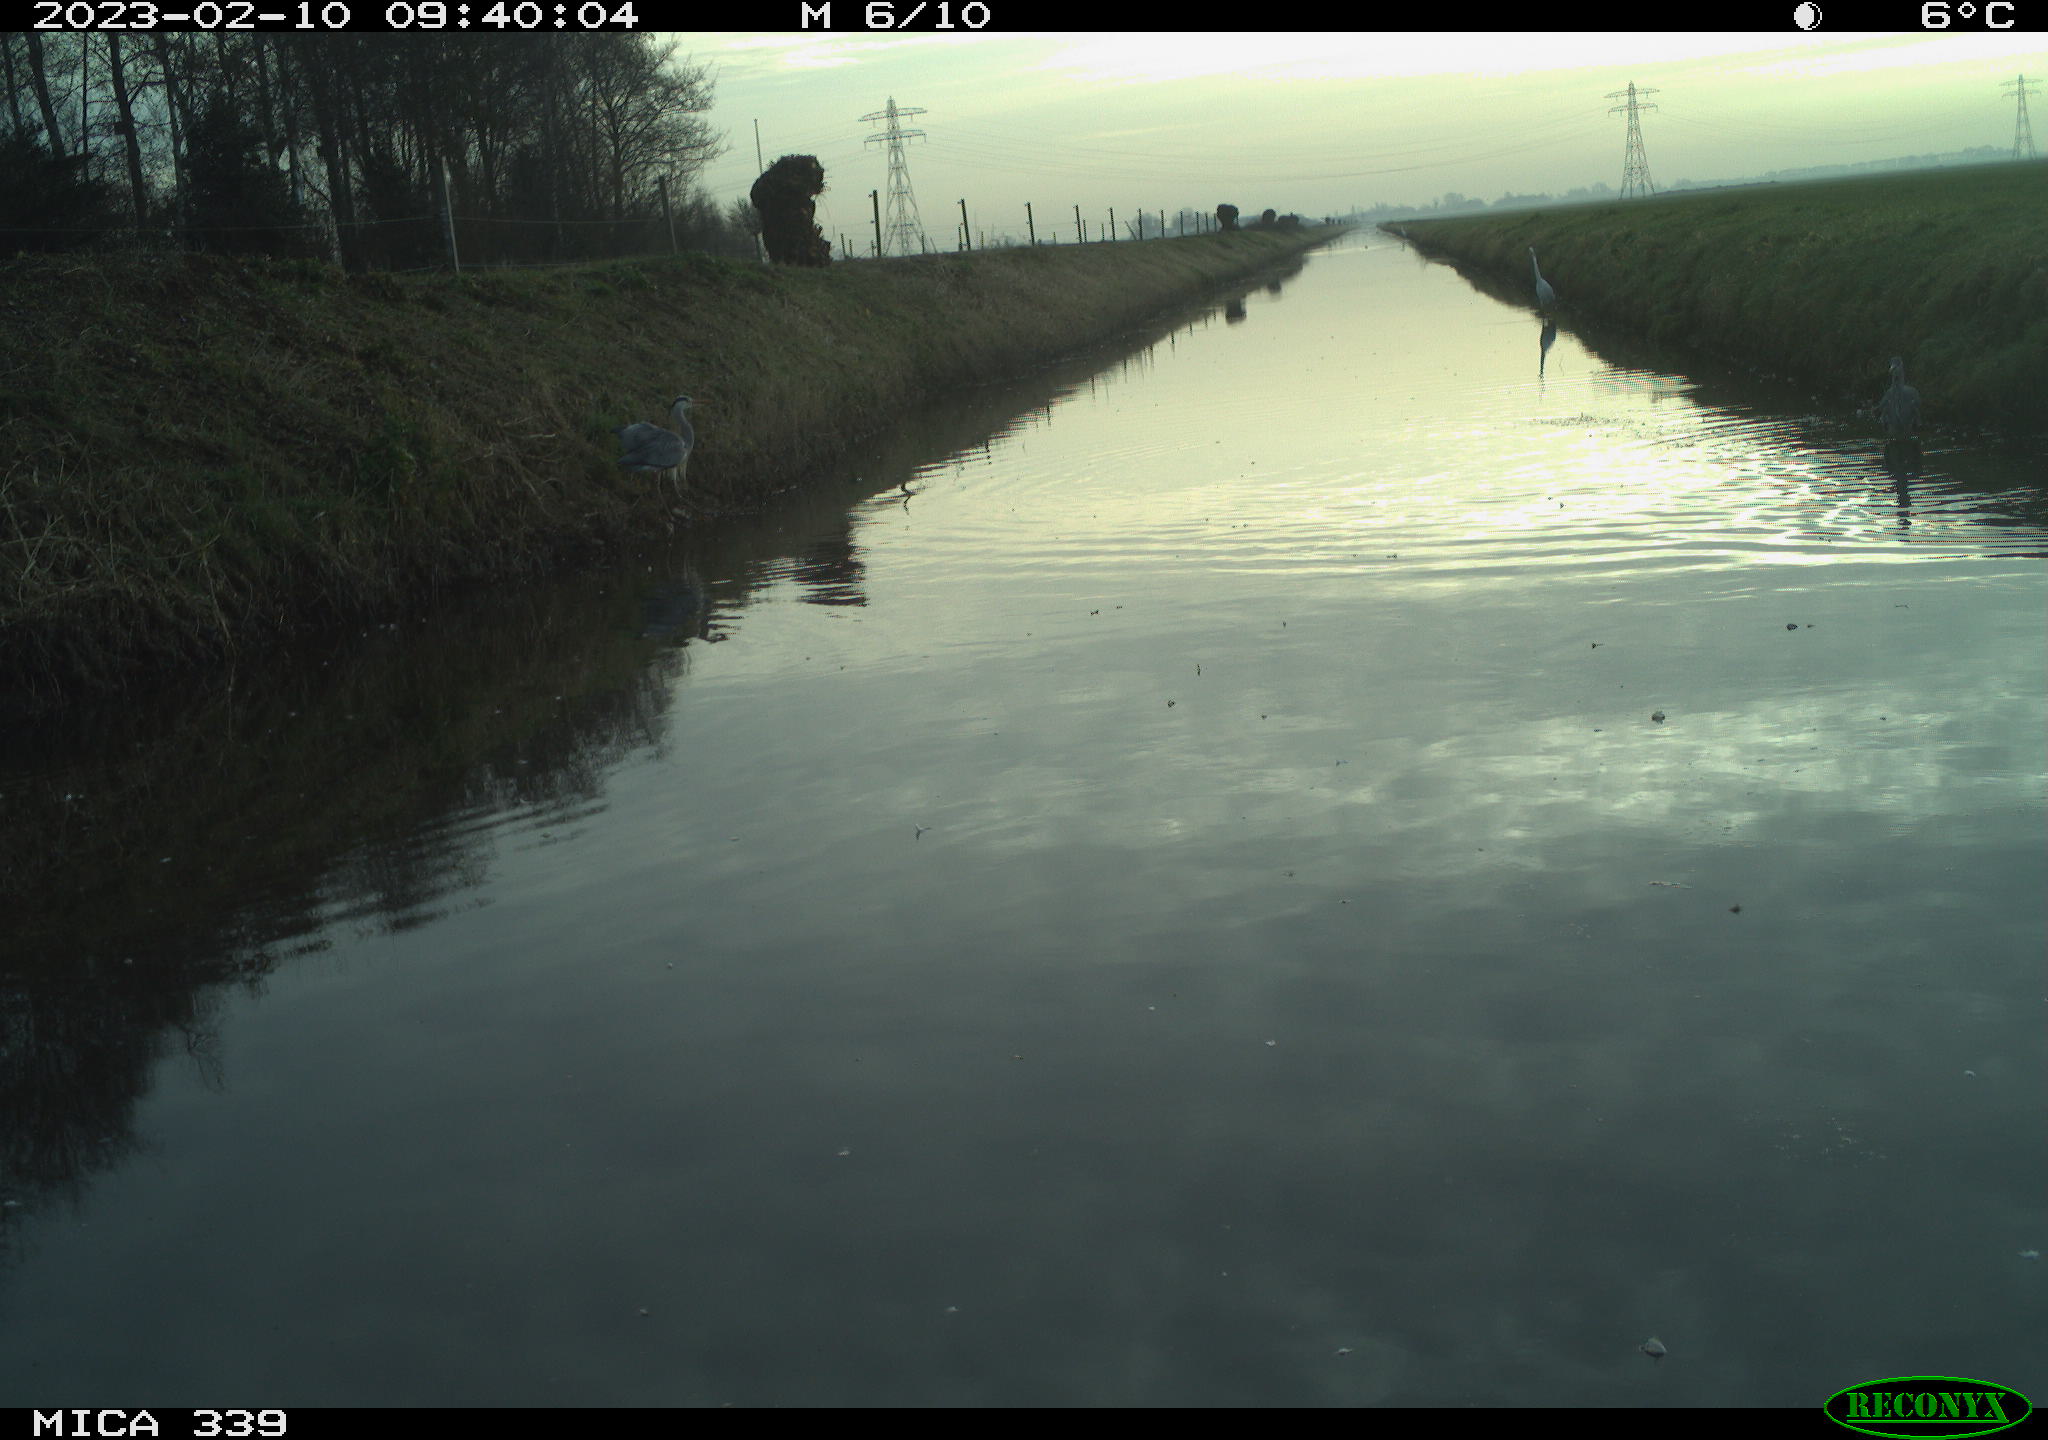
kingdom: Animalia
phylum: Chordata
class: Aves
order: Pelecaniformes
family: Ardeidae
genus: Ardea
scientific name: Ardea alba
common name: Great egret
